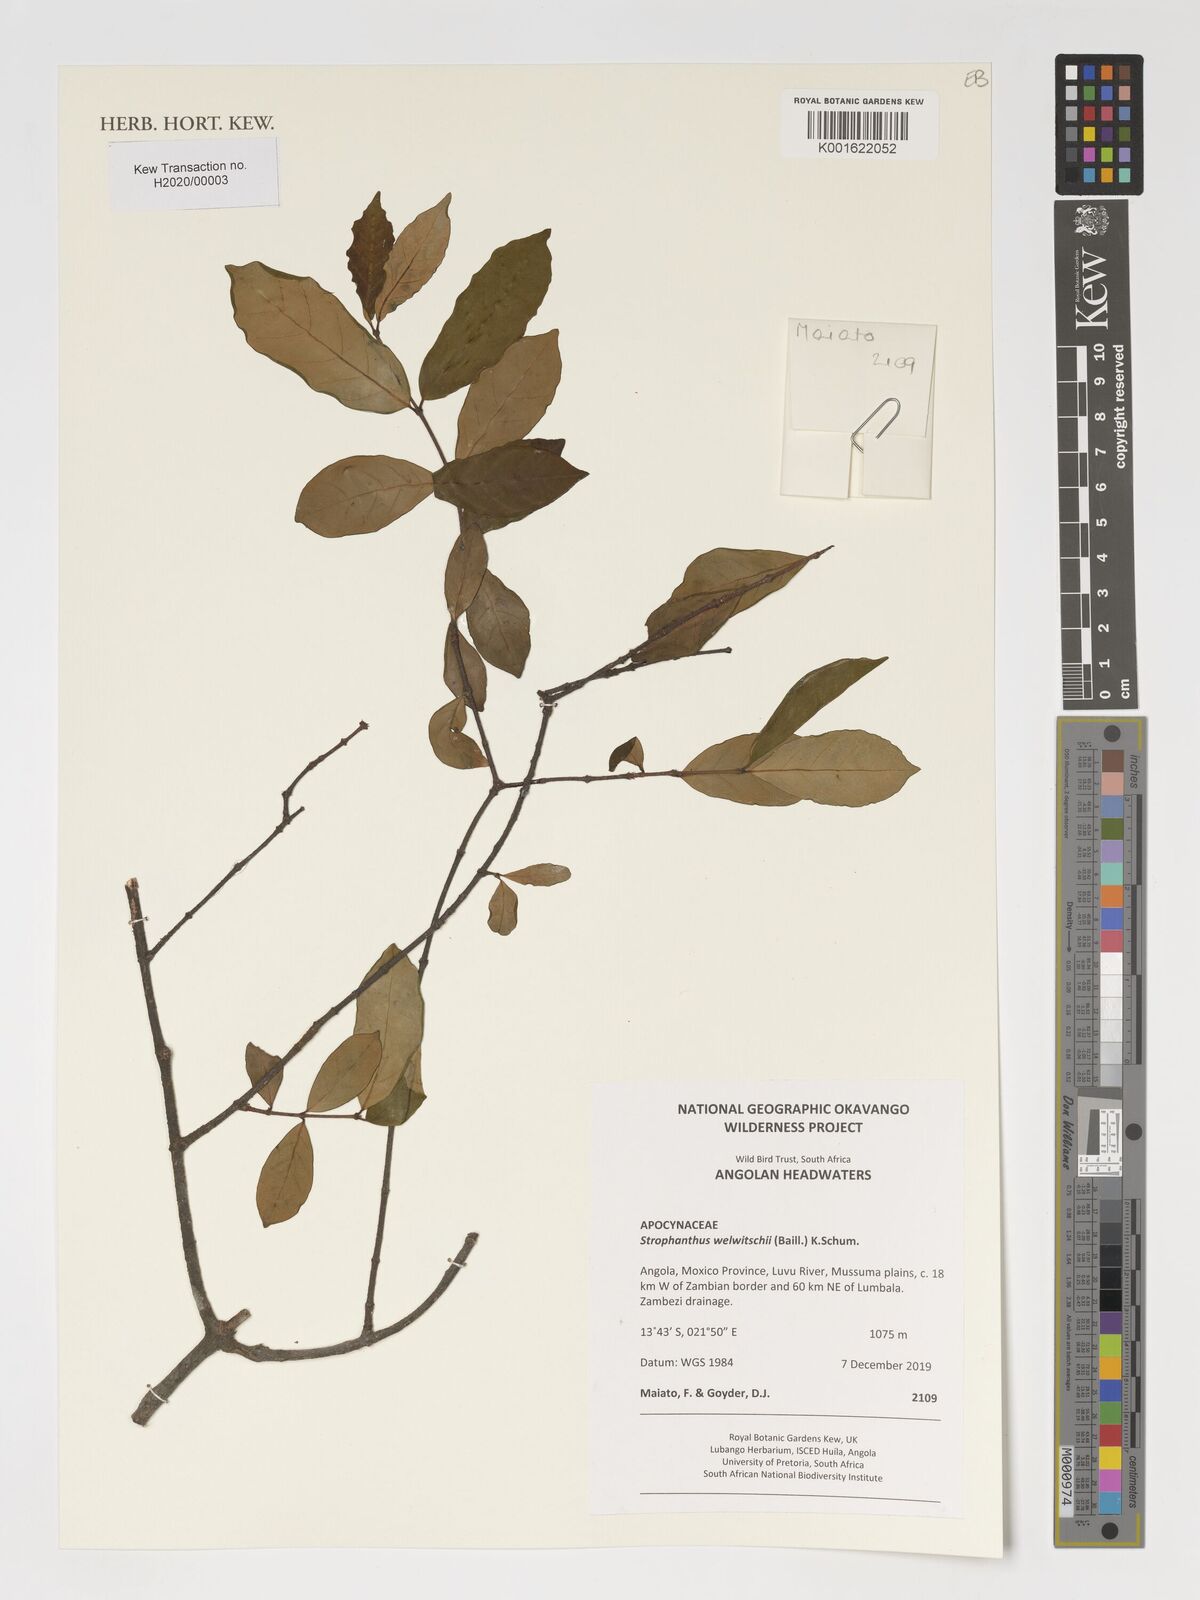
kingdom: Plantae
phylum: Tracheophyta
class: Magnoliopsida
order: Gentianales
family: Apocynaceae
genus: Strophanthus
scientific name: Strophanthus welwitschii
